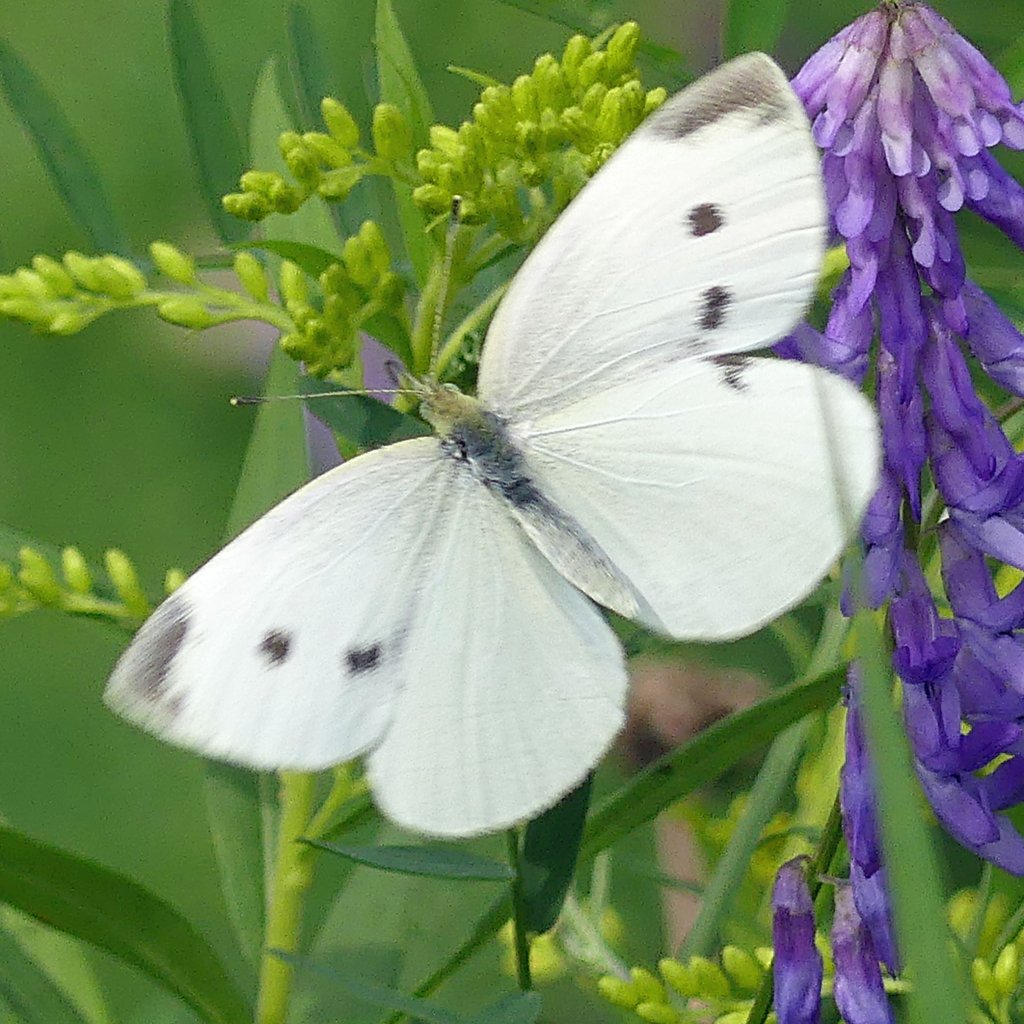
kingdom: Animalia
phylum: Arthropoda
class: Insecta
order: Lepidoptera
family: Pieridae
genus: Pieris
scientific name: Pieris rapae
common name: Cabbage White
